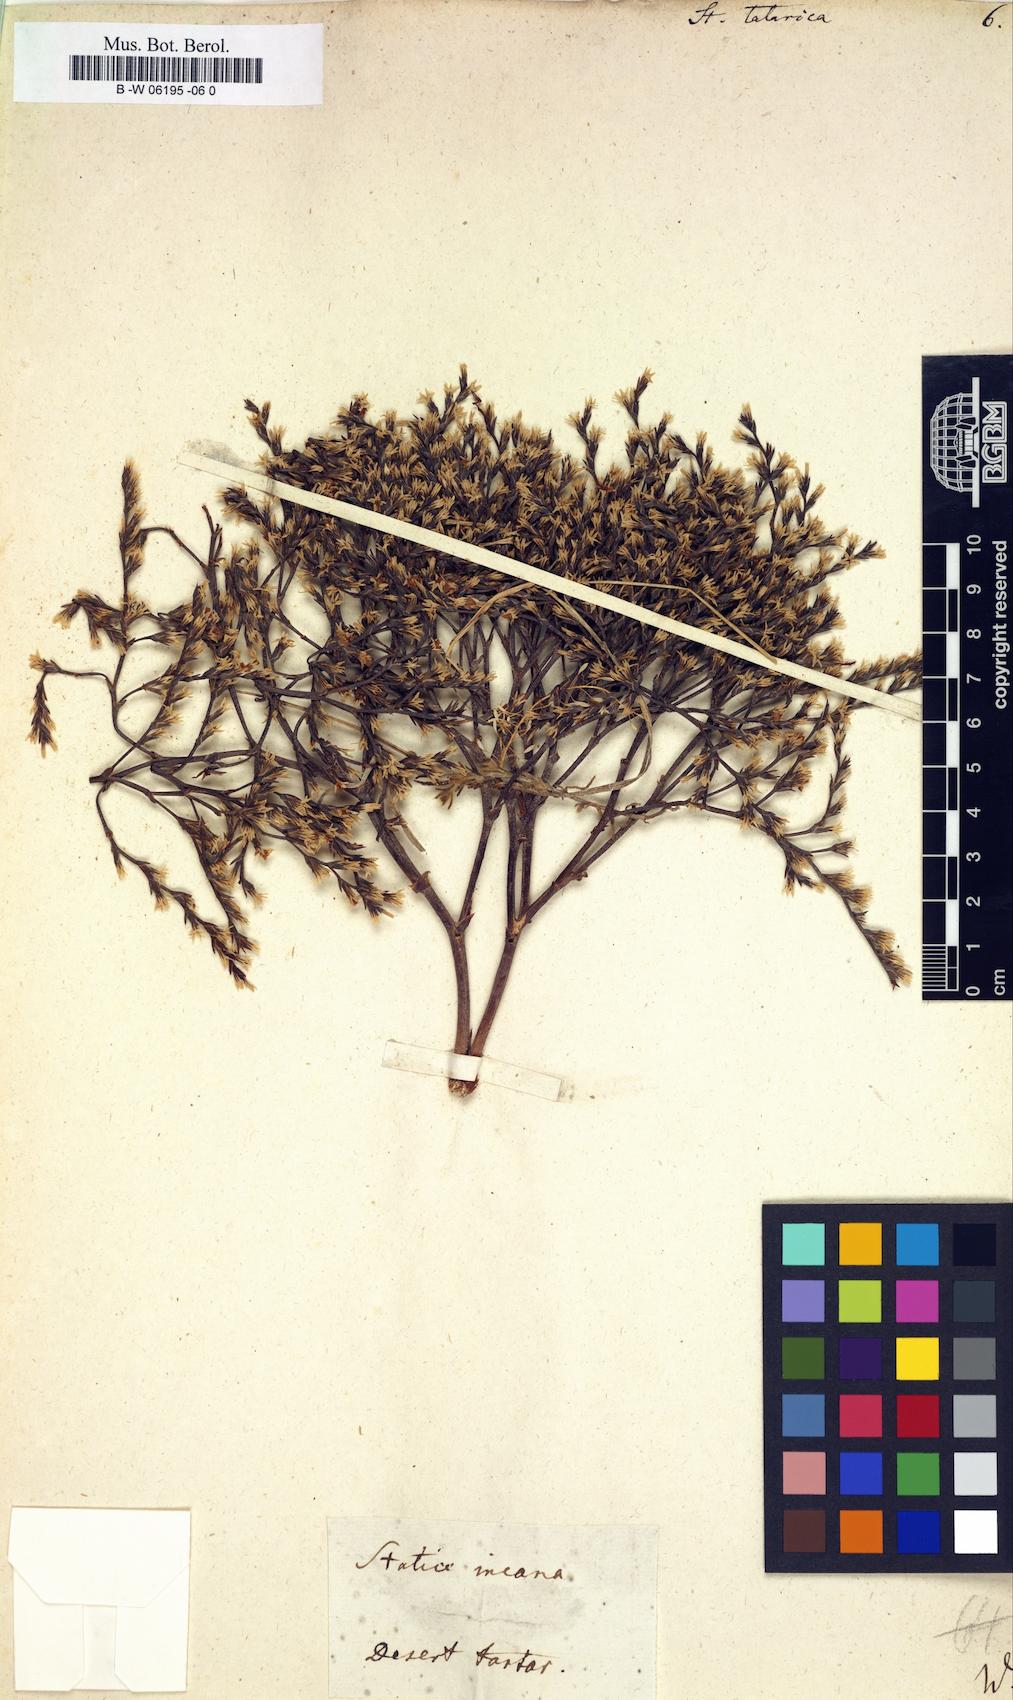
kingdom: Plantae
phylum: Tracheophyta
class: Magnoliopsida
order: Caryophyllales
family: Plumbaginaceae
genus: Goniolimon
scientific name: Goniolimon tataricum
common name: Statice
